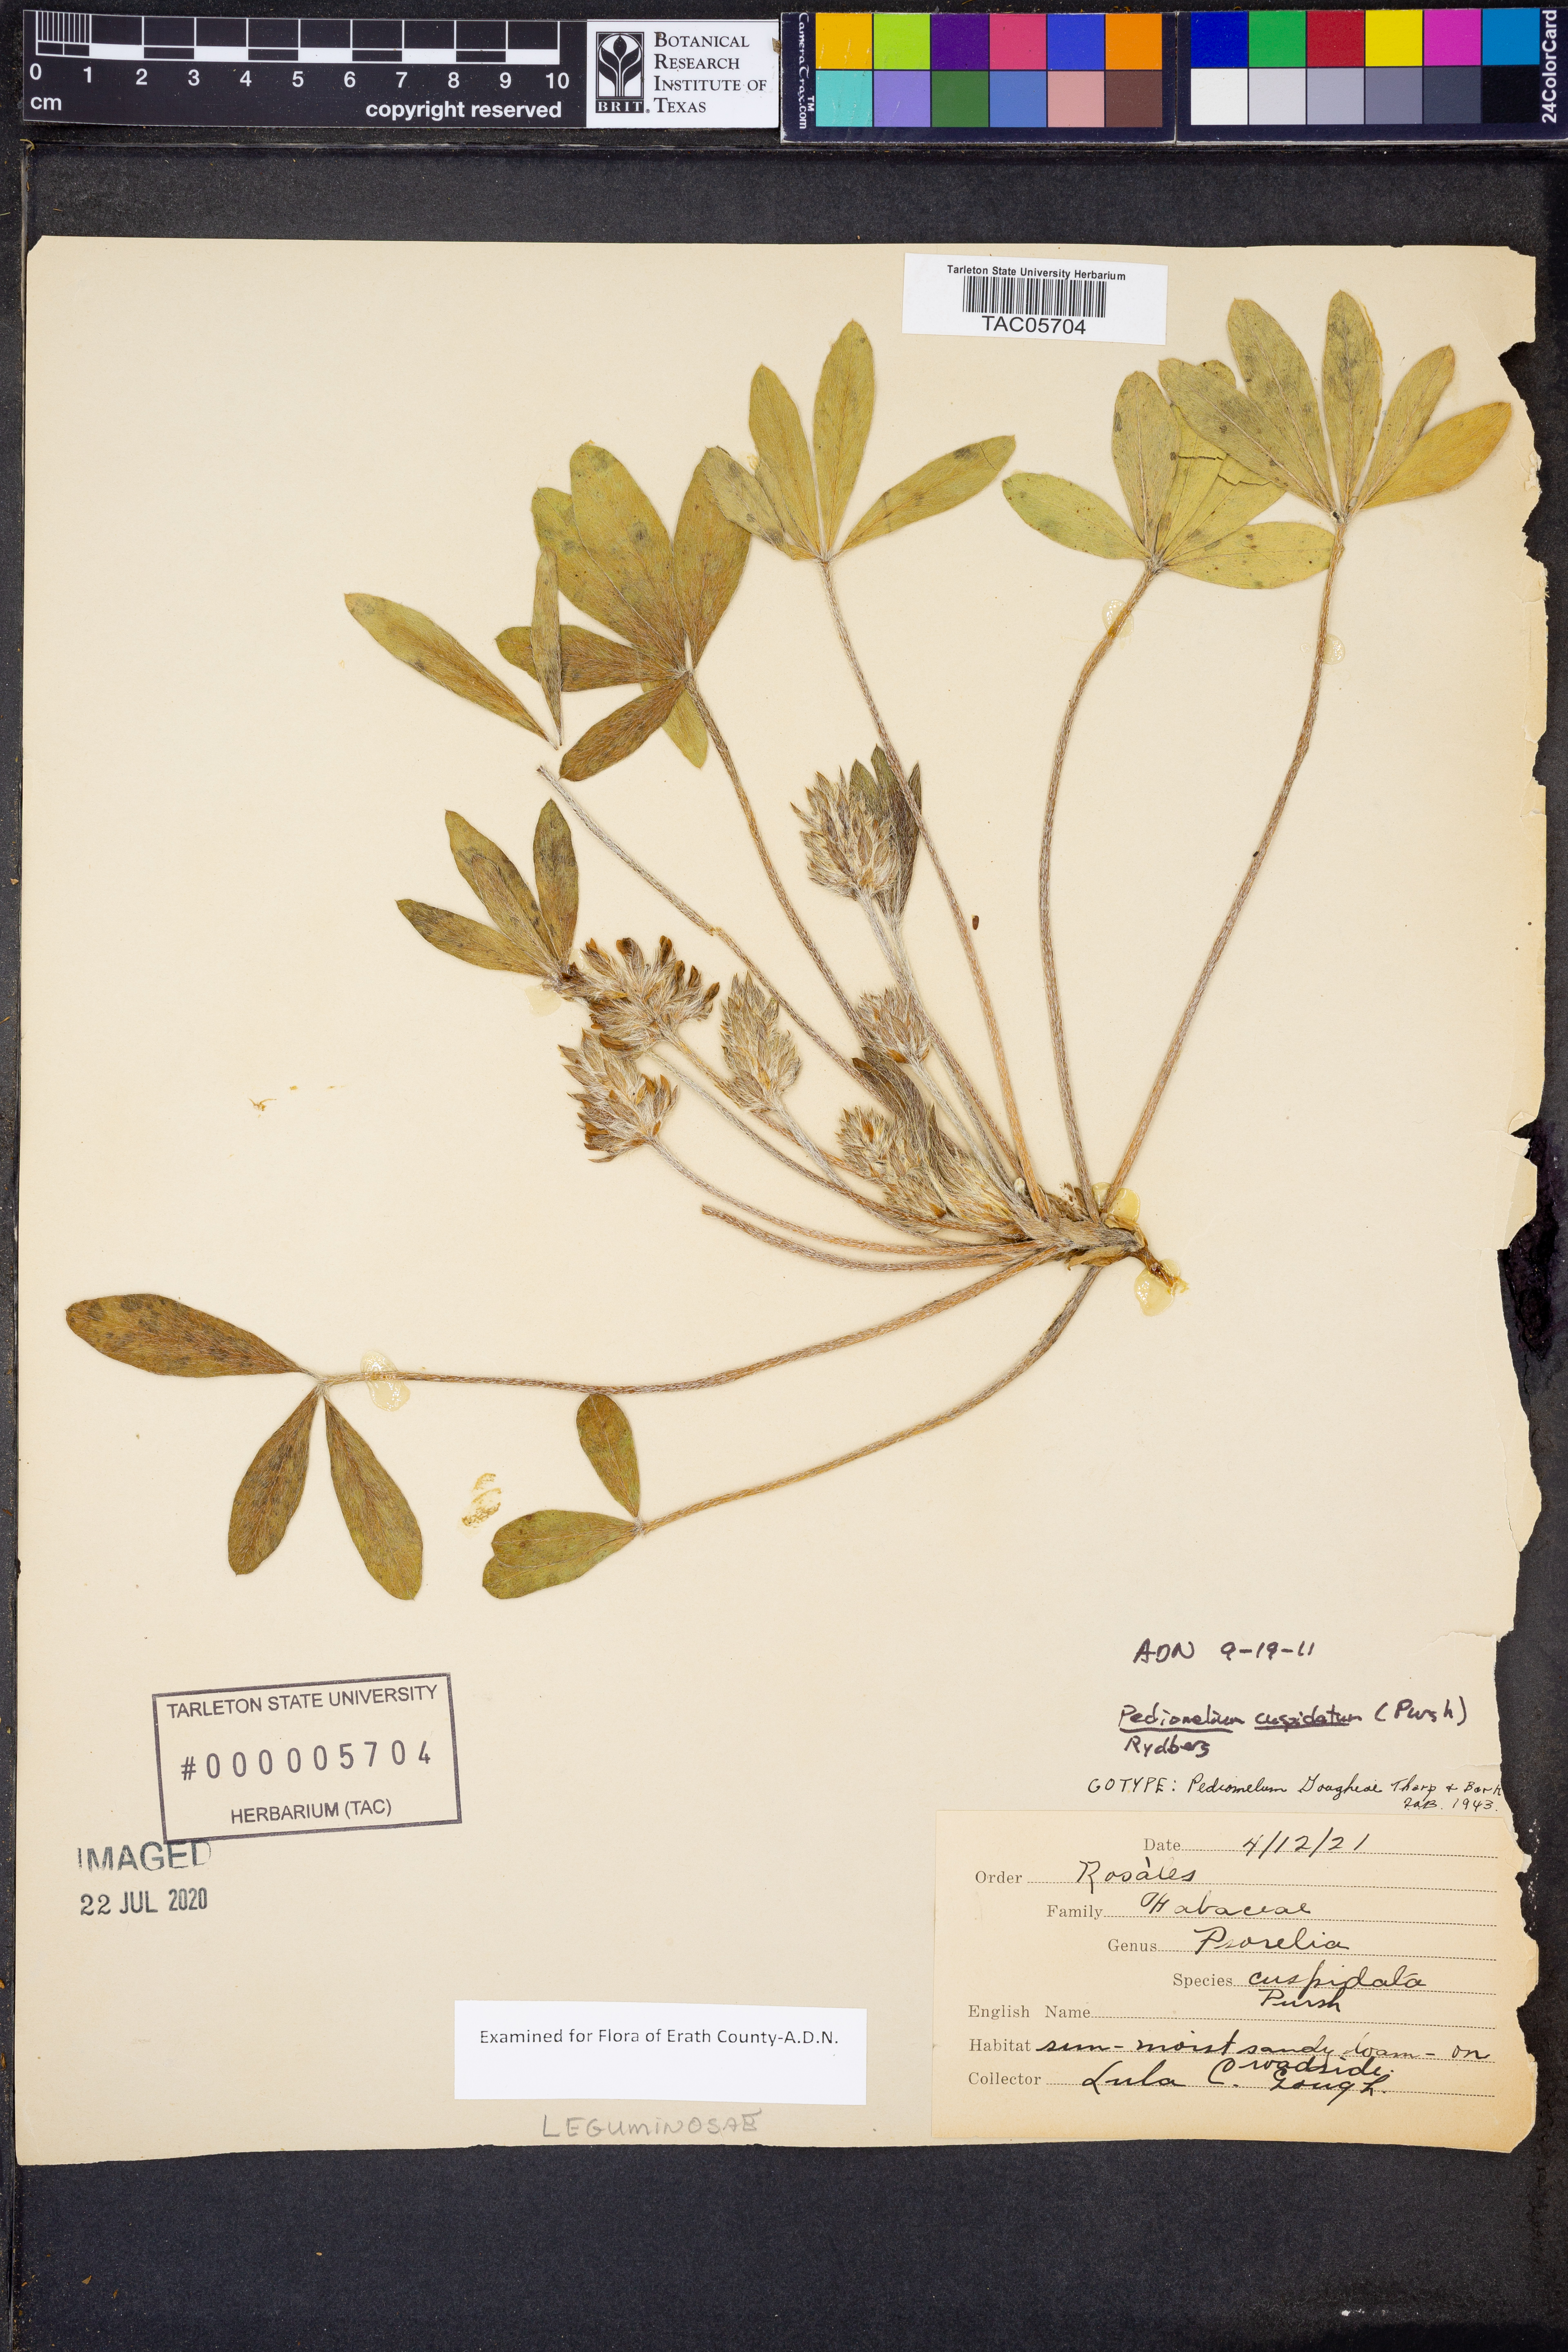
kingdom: Plantae
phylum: Tracheophyta
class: Magnoliopsida
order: Fabales
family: Fabaceae
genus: Pediomelum
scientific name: Pediomelum cuspidatum
